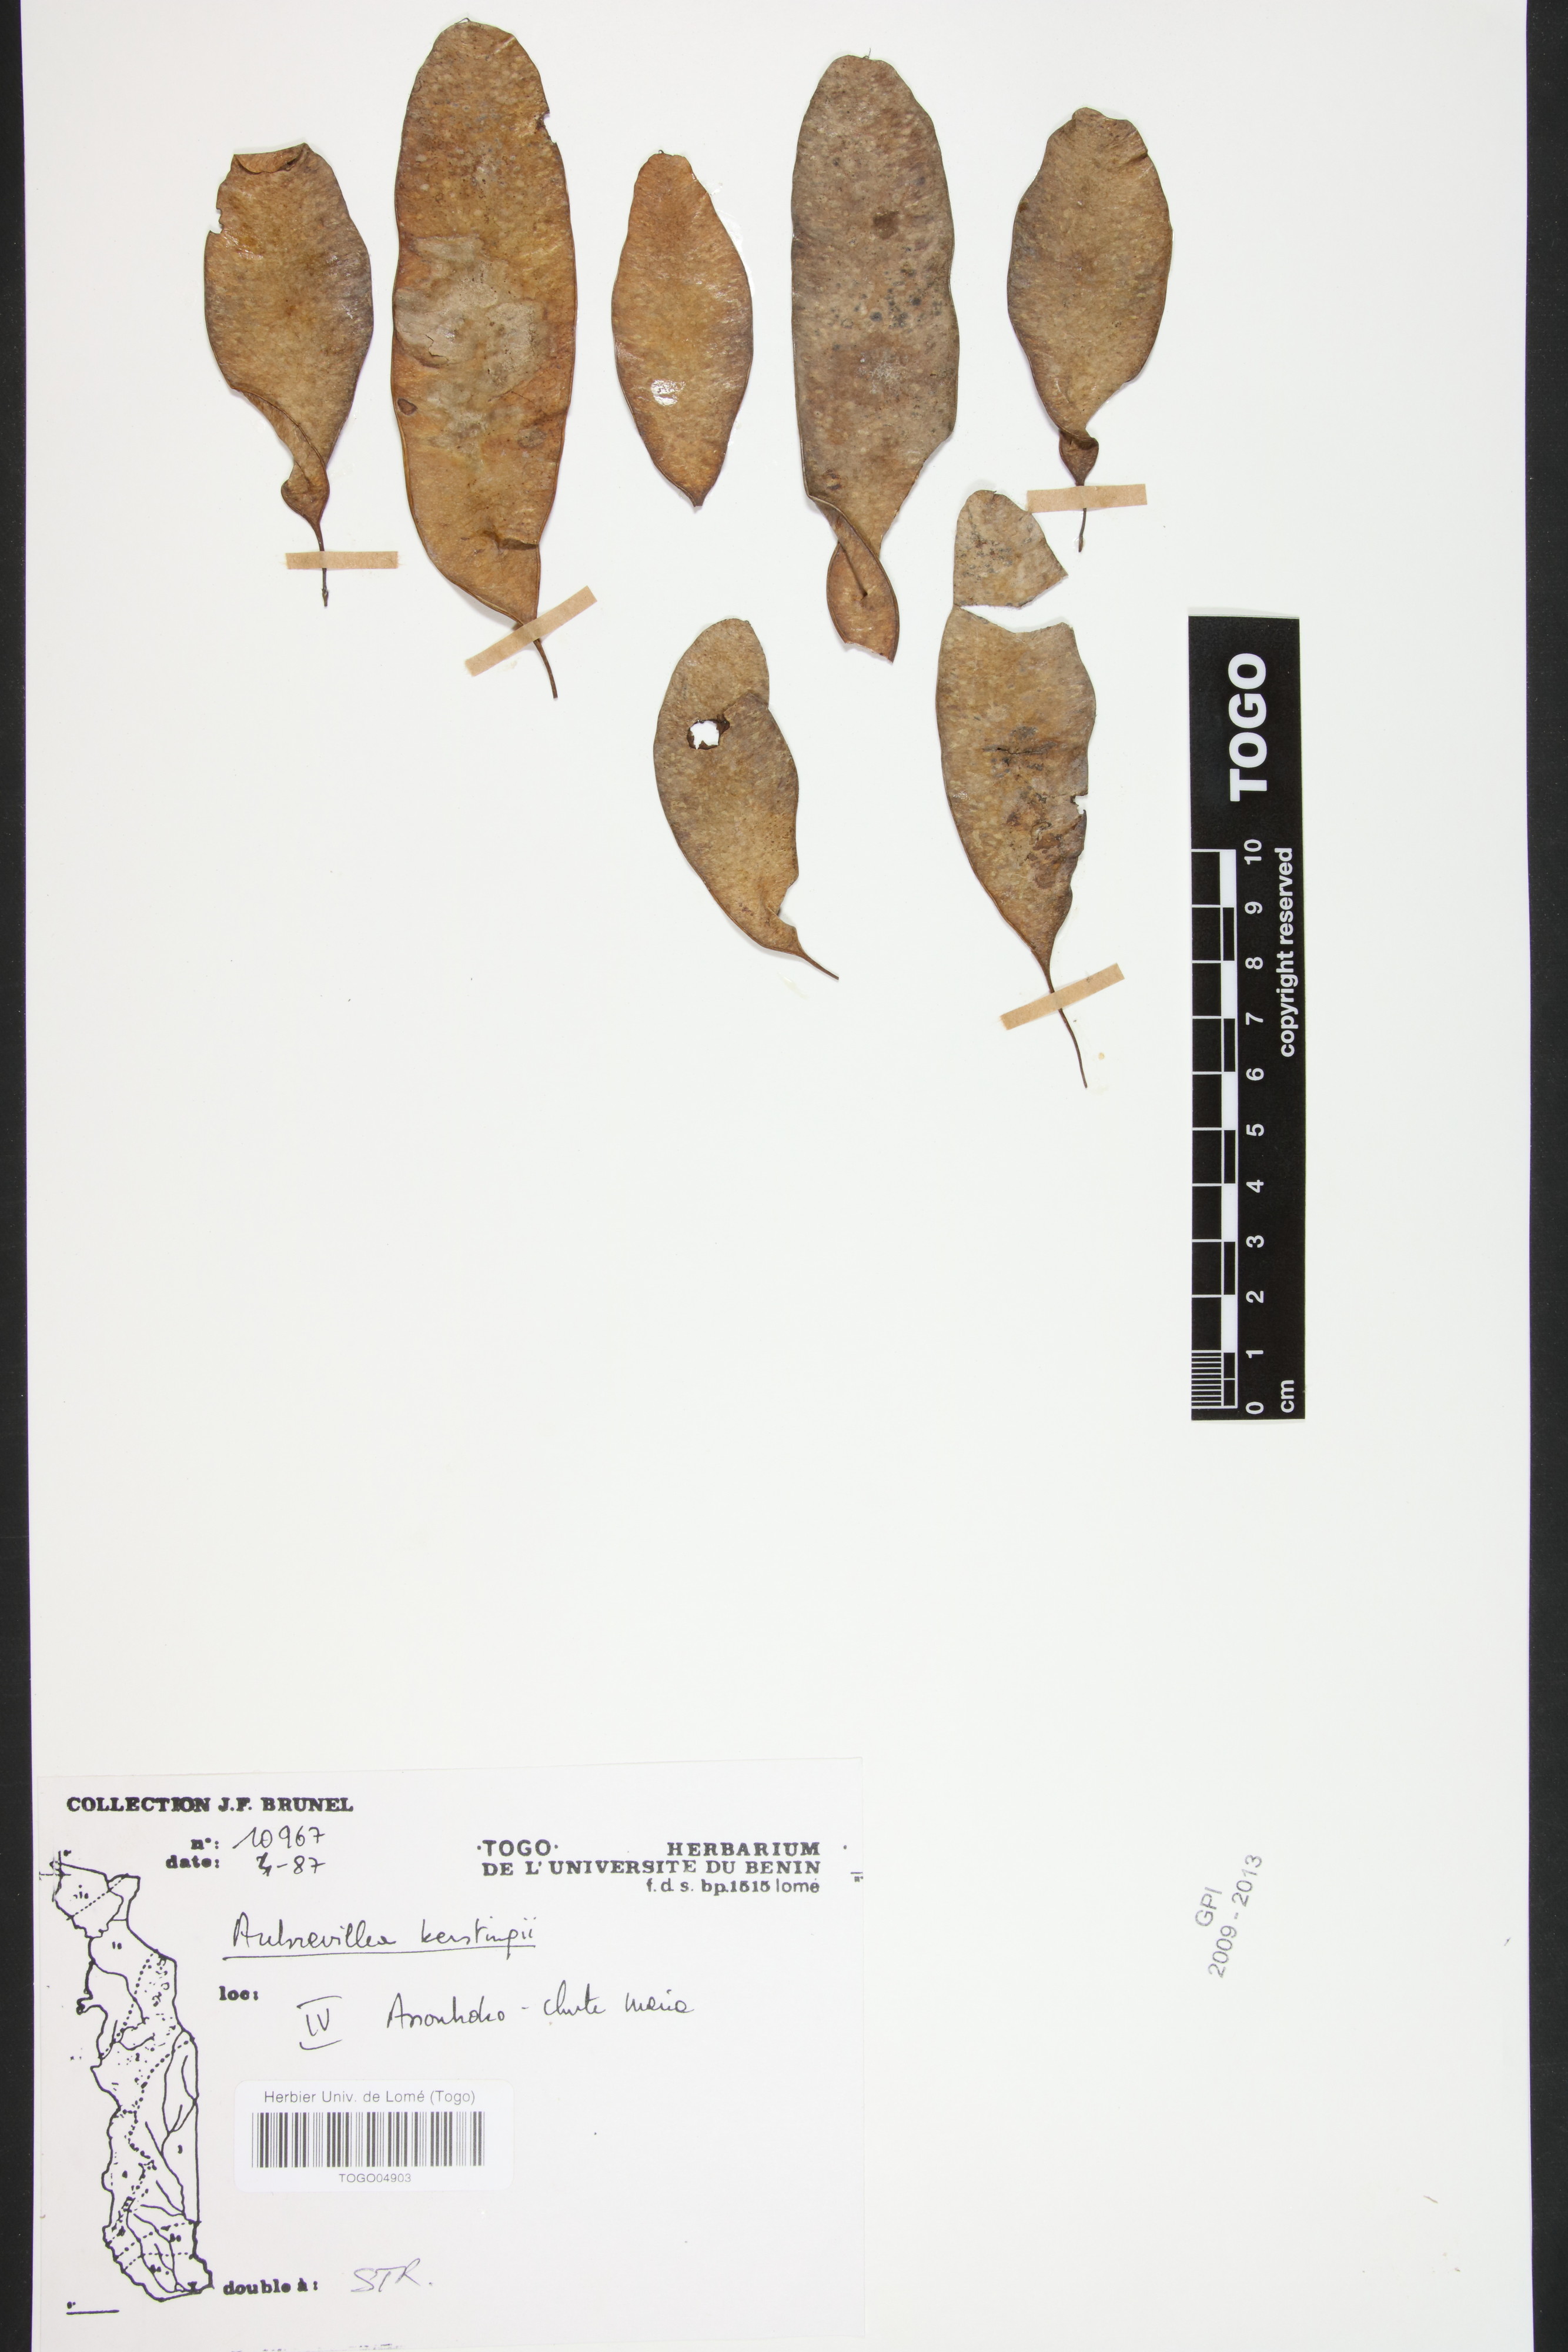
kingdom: Plantae
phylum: Tracheophyta
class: Magnoliopsida
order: Fabales
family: Fabaceae
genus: Aubrevillea
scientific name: Aubrevillea kerstingii
